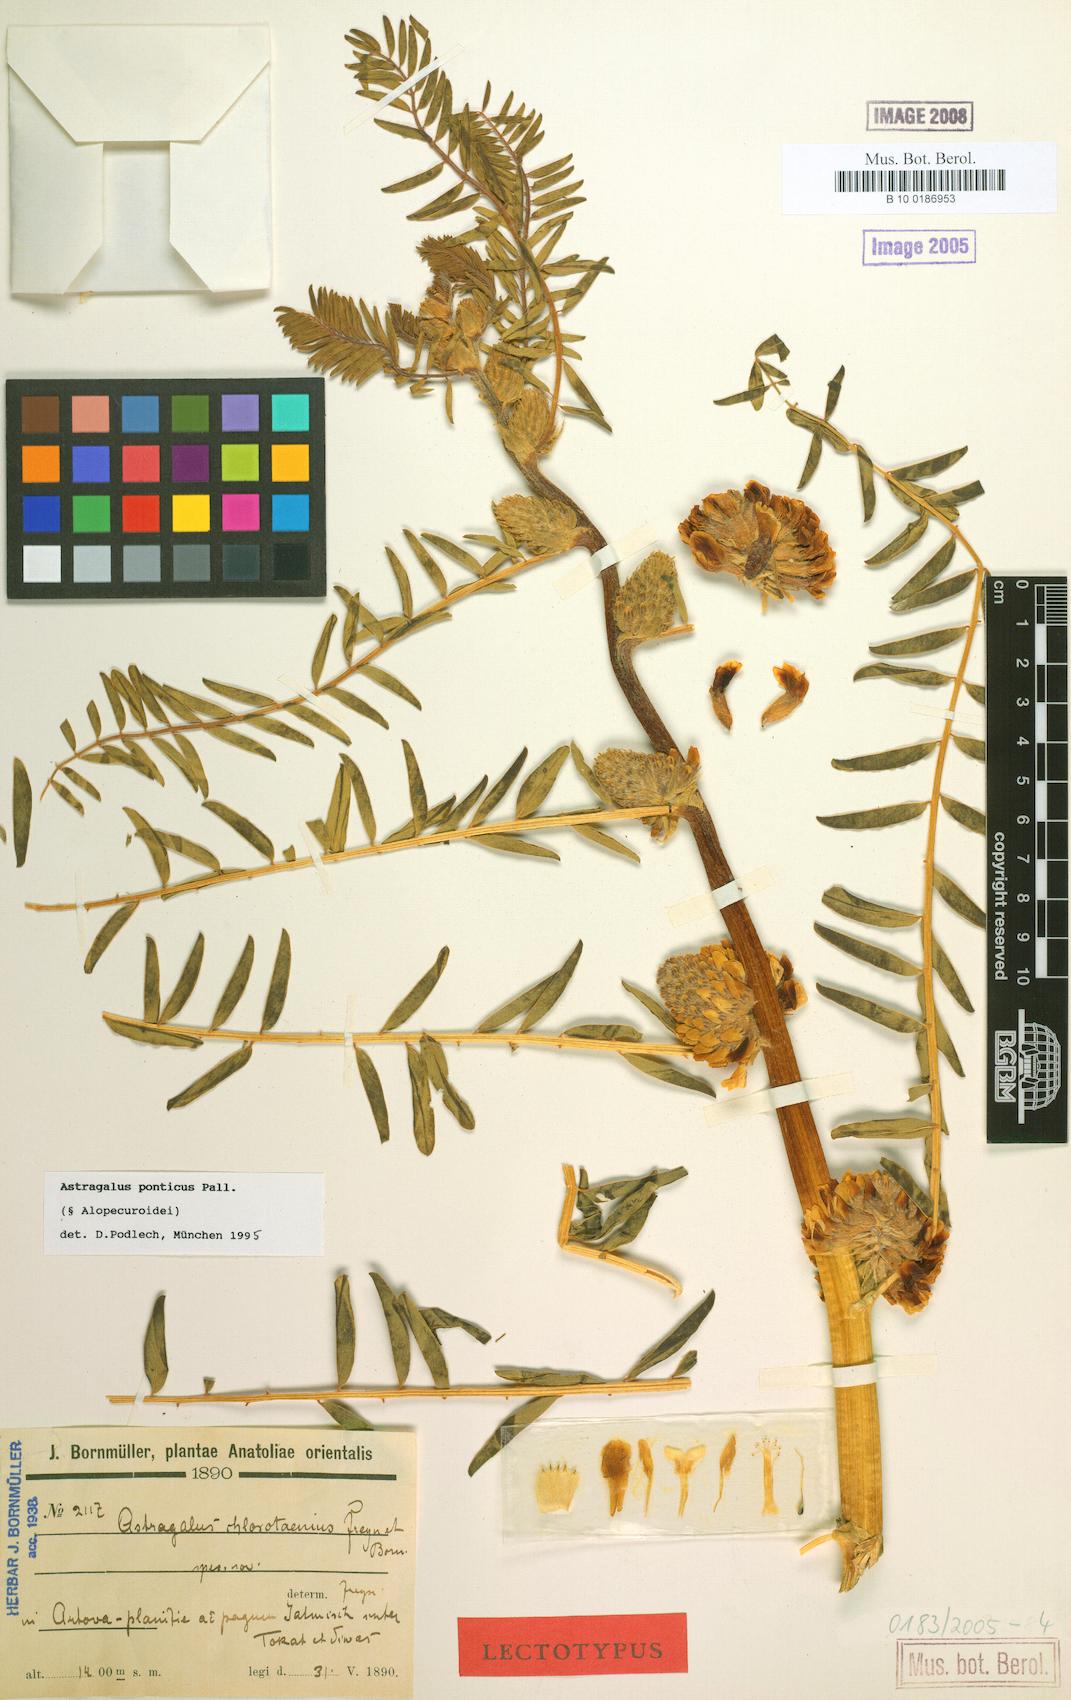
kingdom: Plantae
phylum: Tracheophyta
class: Magnoliopsida
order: Fabales
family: Fabaceae
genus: Astragalus
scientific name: Astragalus ponticus
